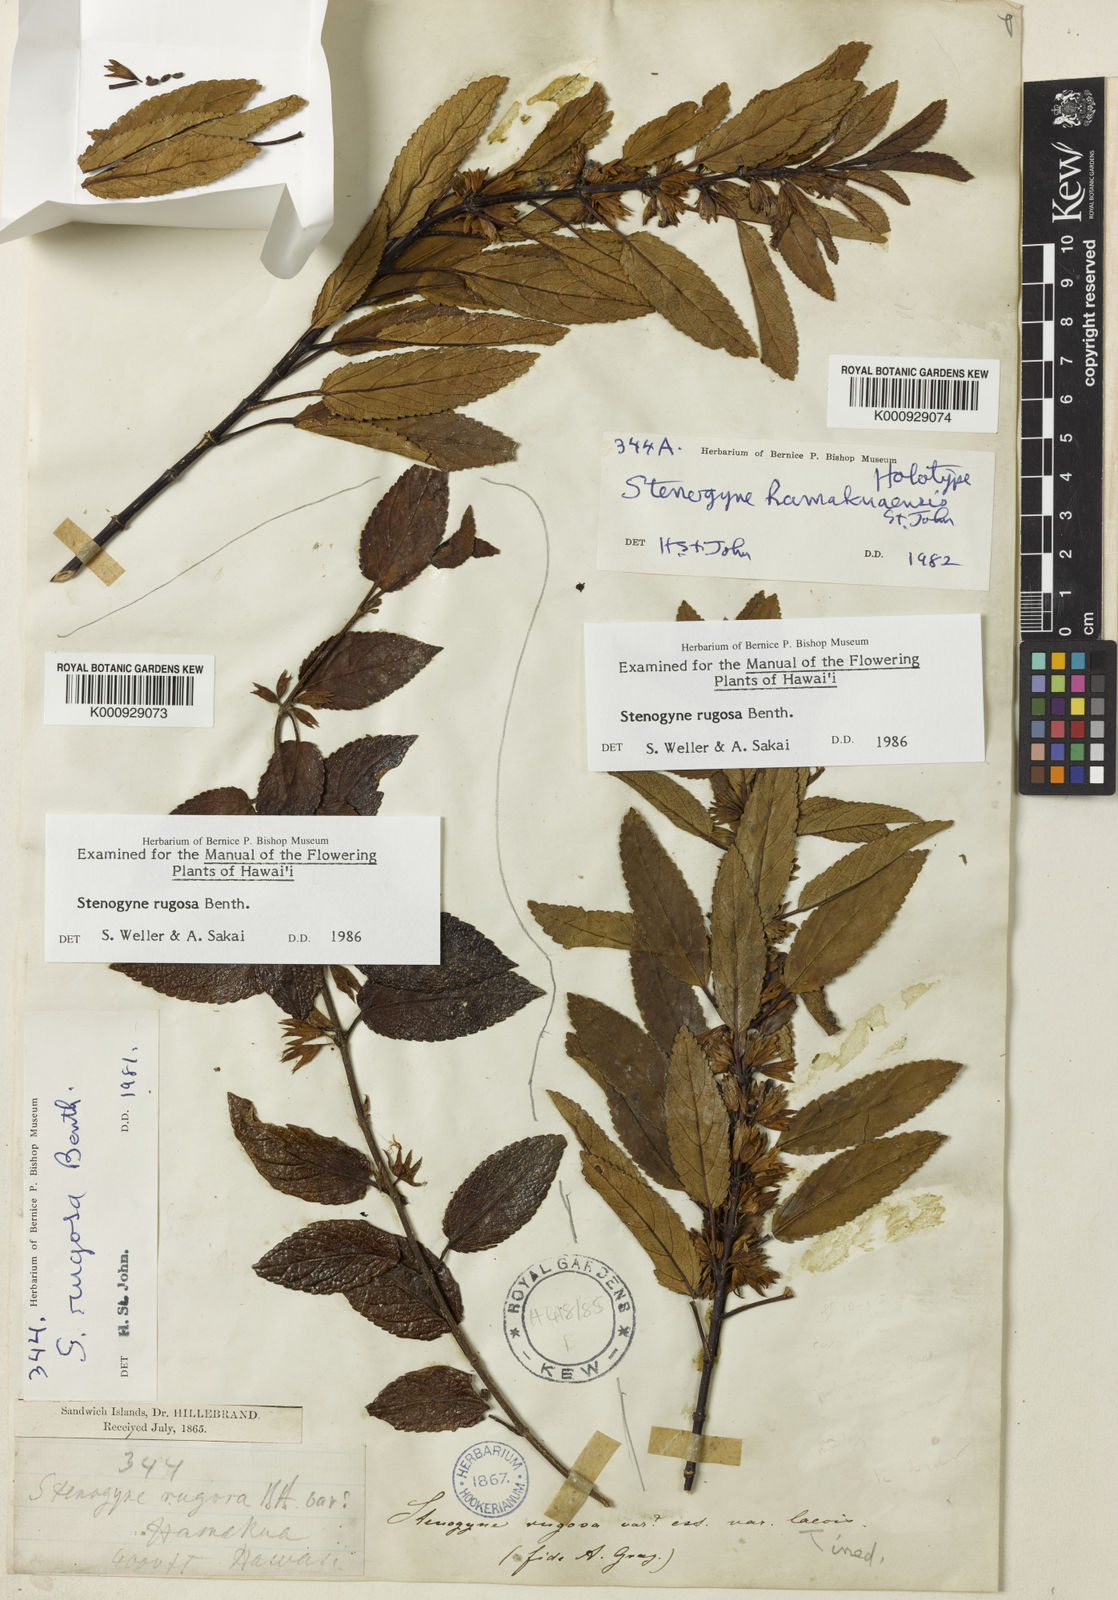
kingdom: Plantae
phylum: Tracheophyta
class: Magnoliopsida
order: Lamiales
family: Lamiaceae
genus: Stenogyne
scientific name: Stenogyne rugosa
